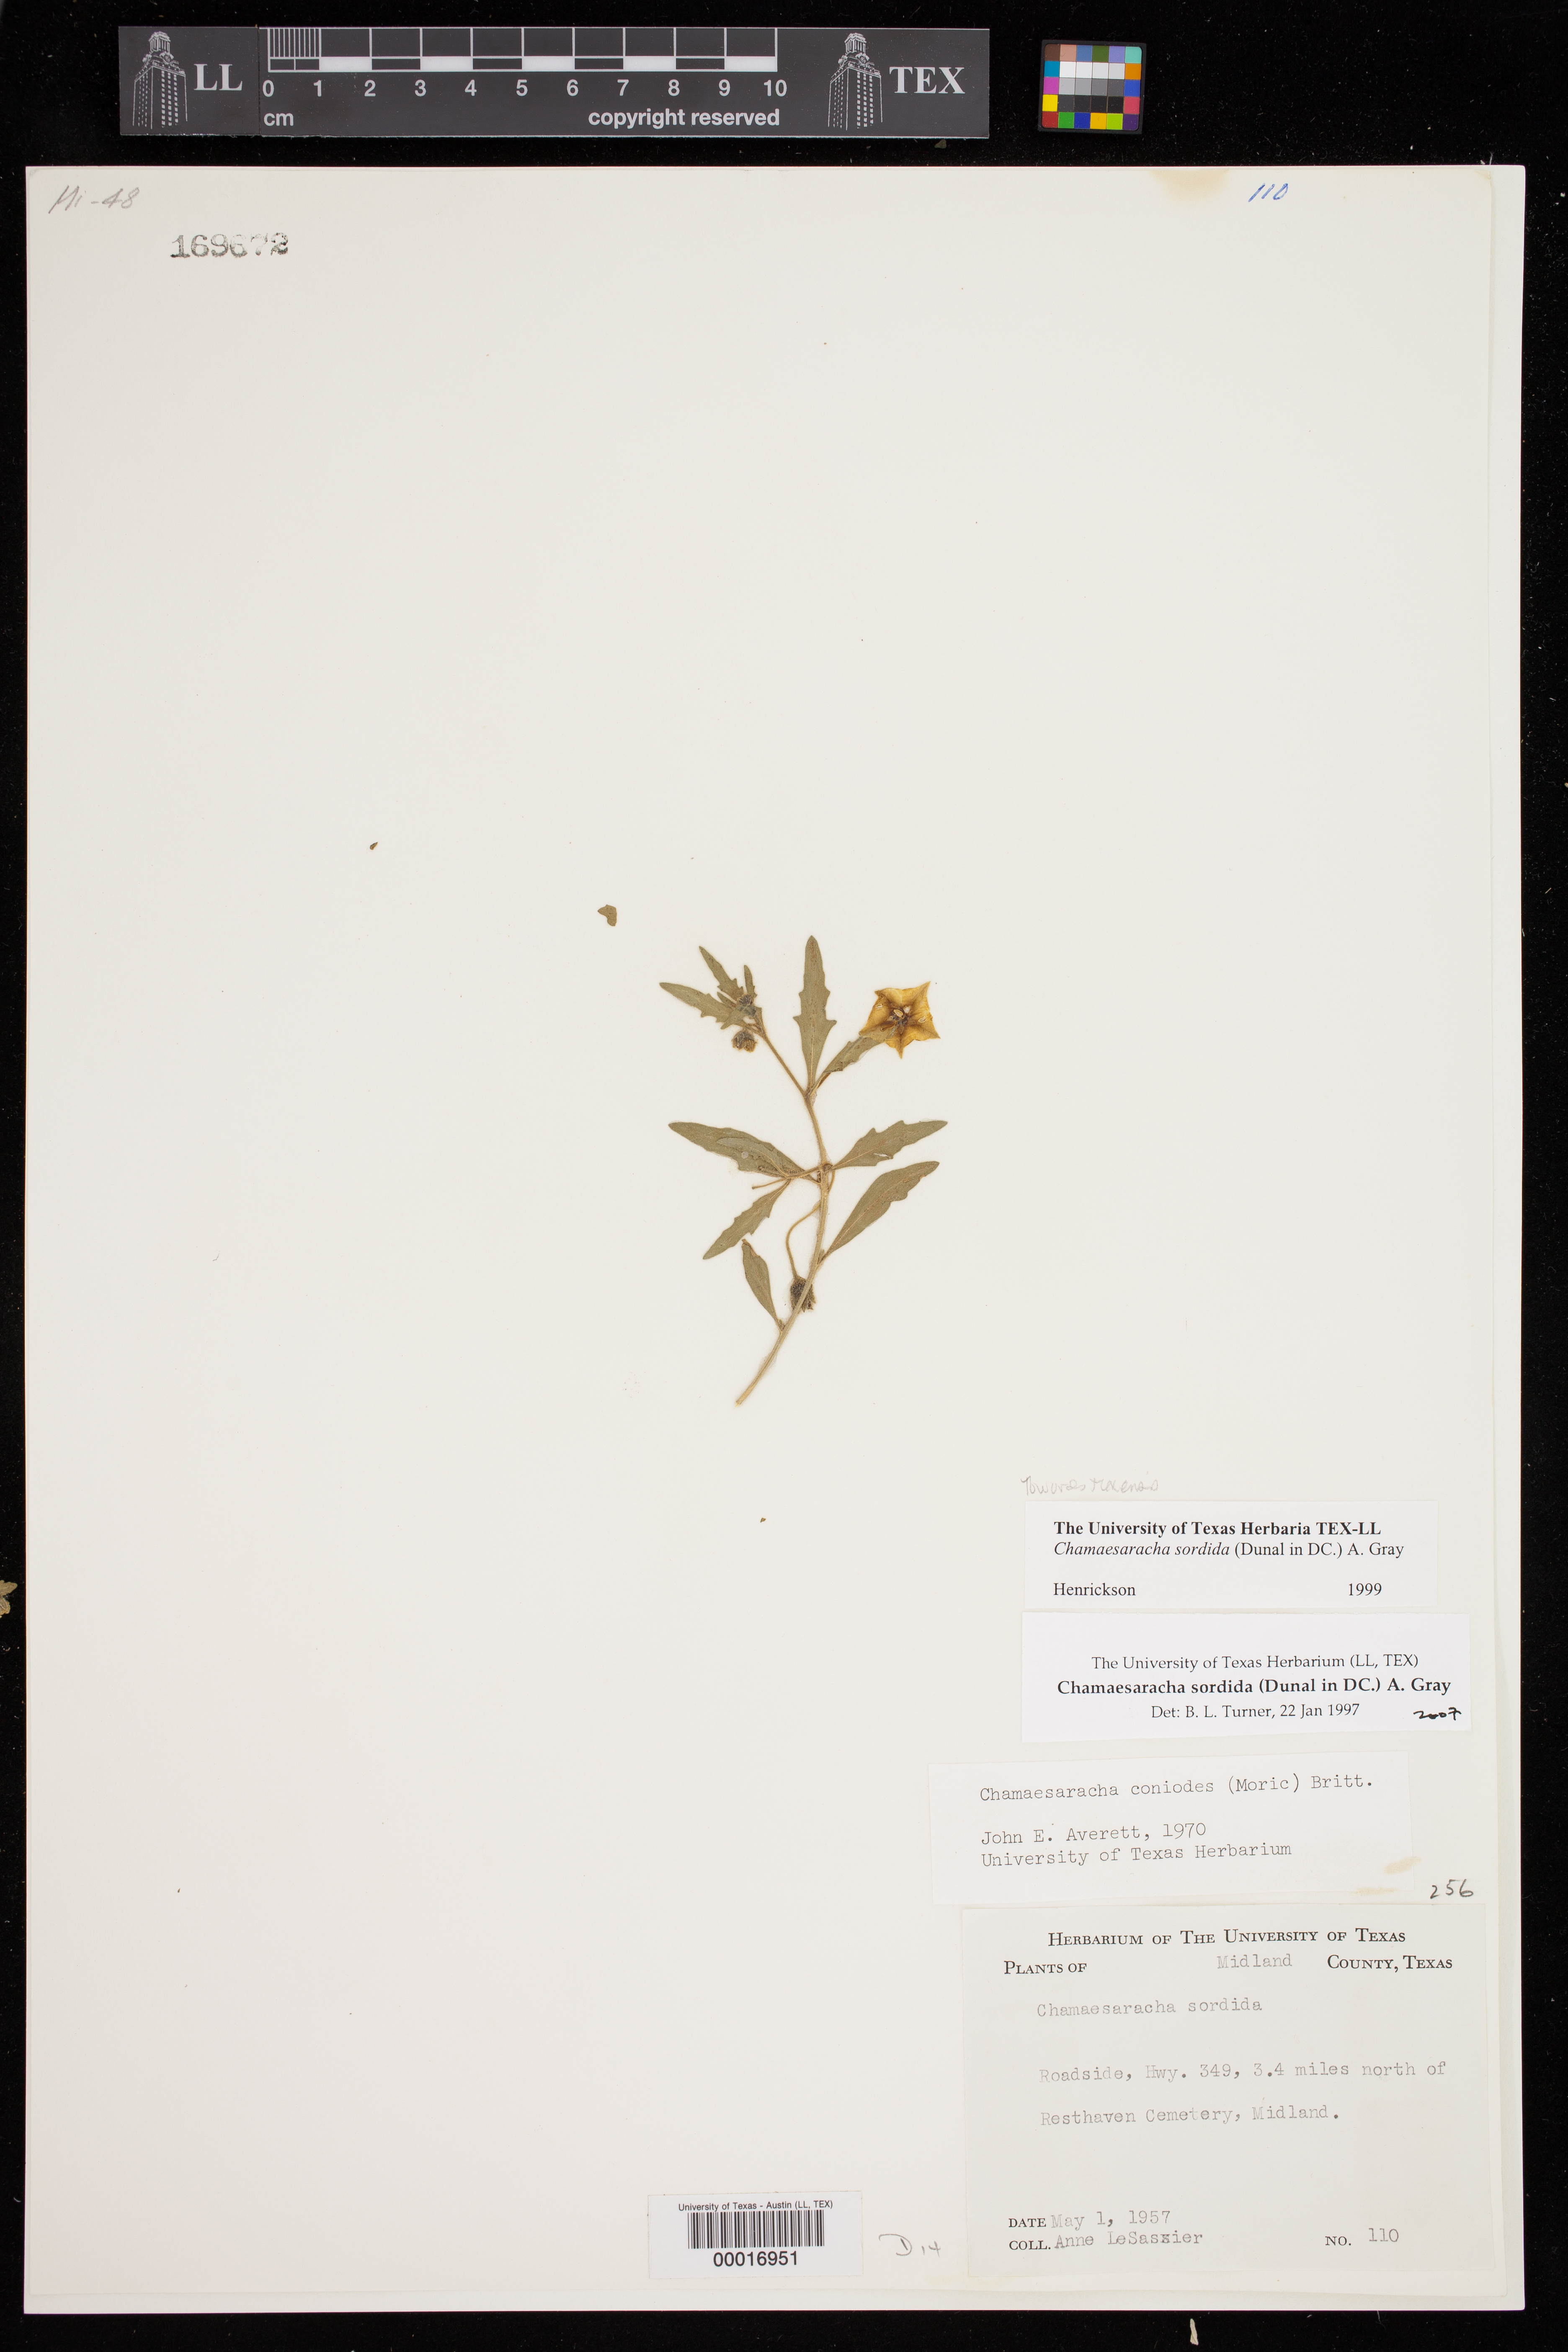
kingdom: Plantae
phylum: Tracheophyta
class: Magnoliopsida
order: Solanales
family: Solanaceae
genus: Chamaesaracha
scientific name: Chamaesaracha sordida
